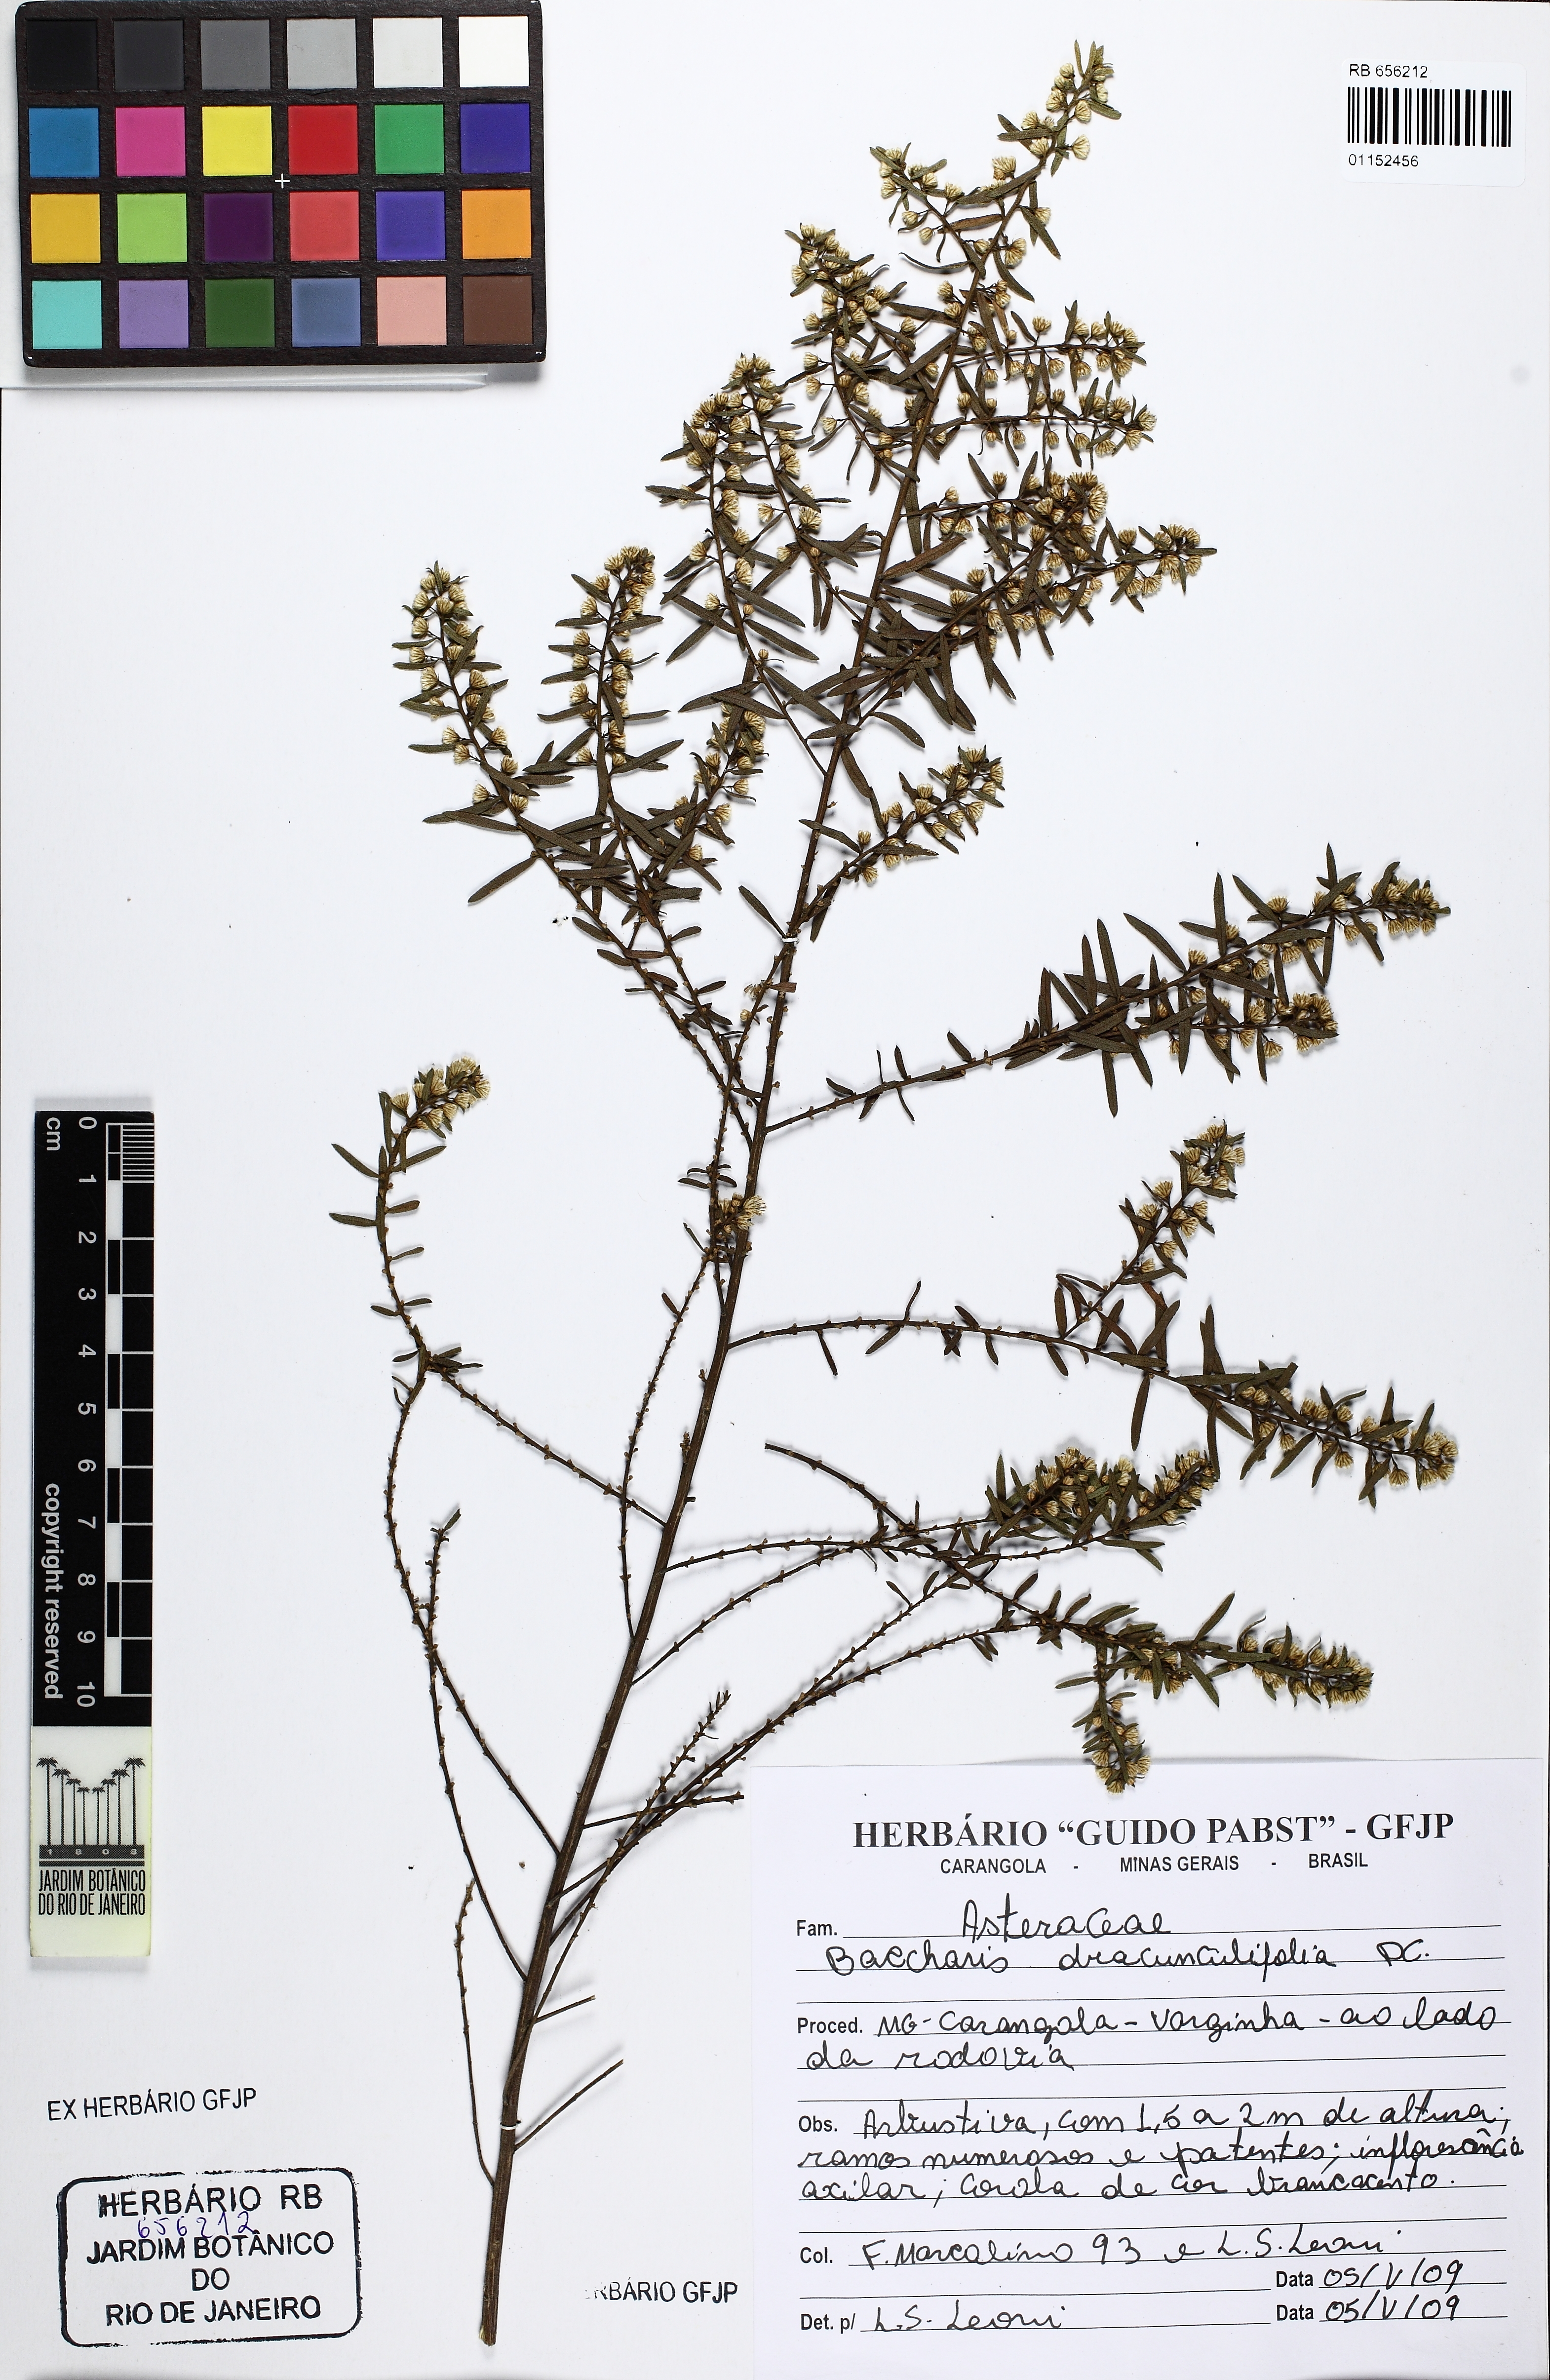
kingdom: Plantae
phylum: Tracheophyta
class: Magnoliopsida
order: Asterales
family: Asteraceae
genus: Baccharis
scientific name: Baccharis dracunculifolia
